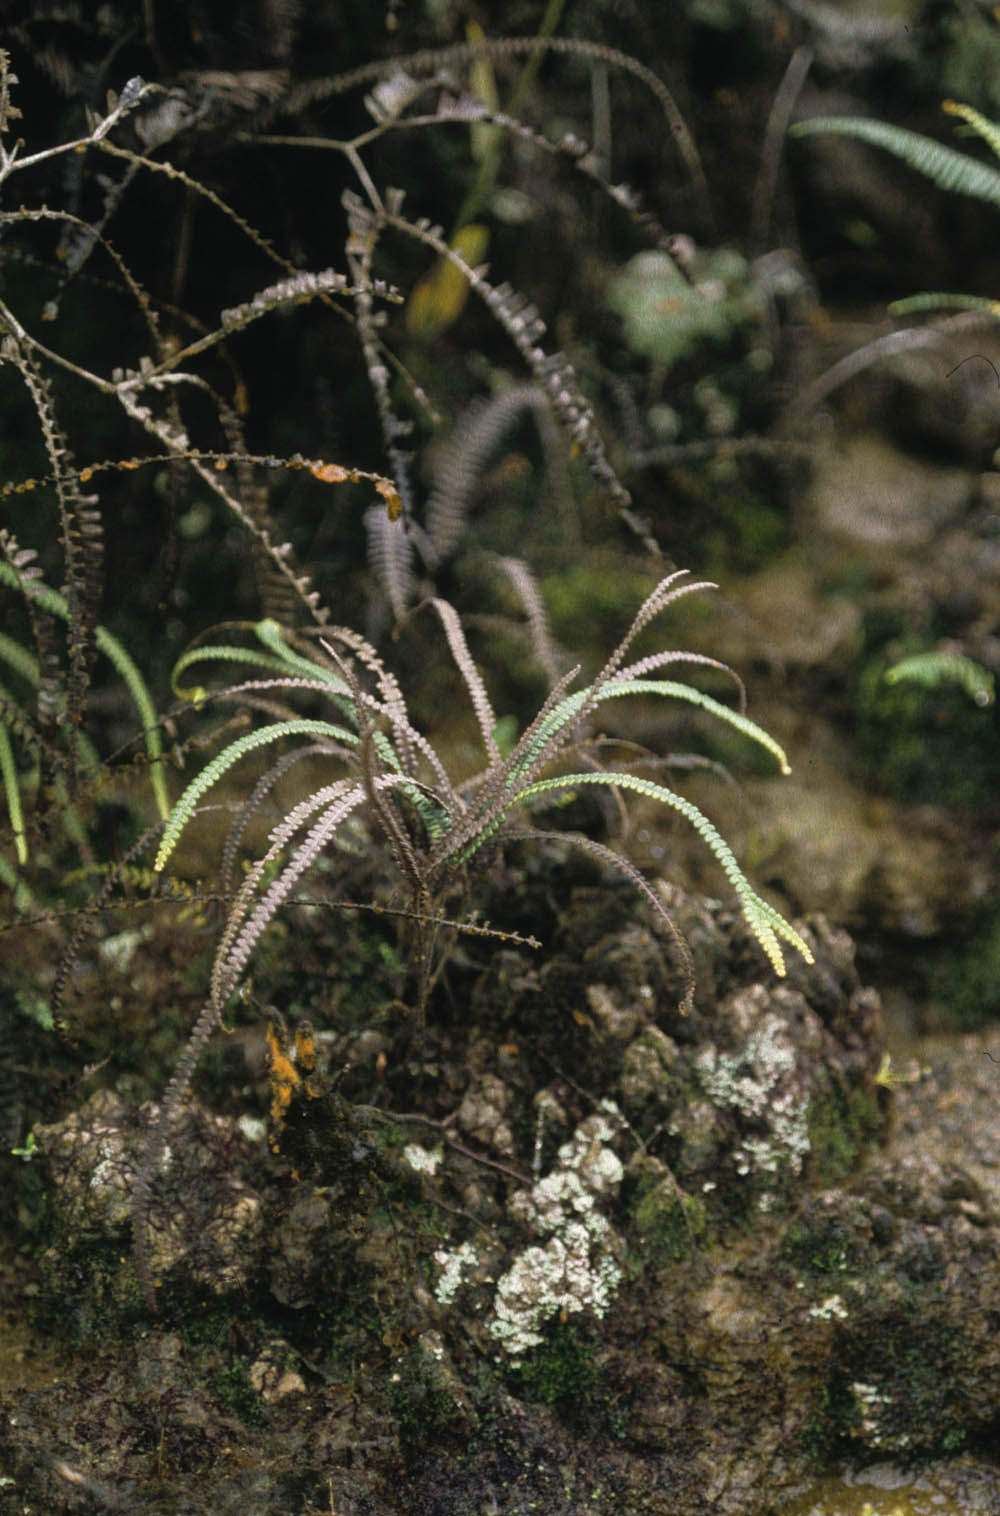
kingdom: Plantae
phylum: Tracheophyta
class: Polypodiopsida
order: Gleicheniales
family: Gleicheniaceae
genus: Sticherus
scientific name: Sticherus maritimus
